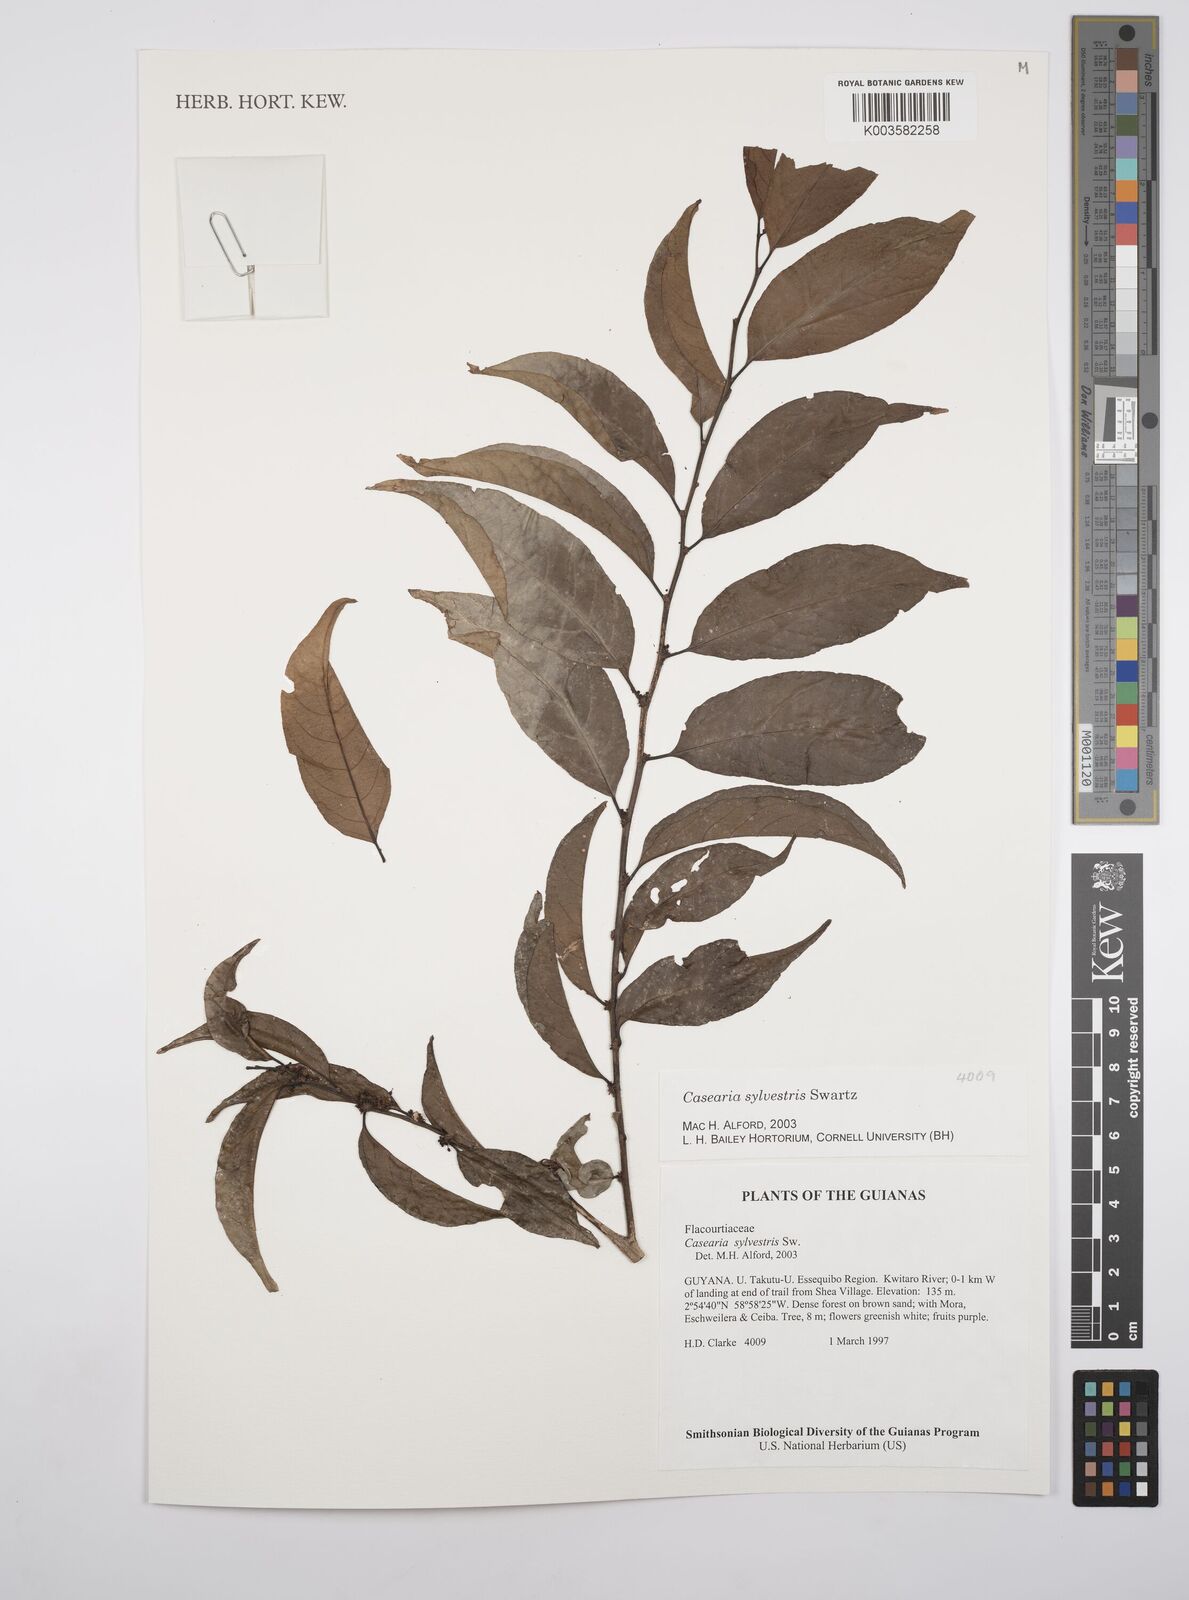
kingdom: Plantae
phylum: Tracheophyta
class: Magnoliopsida
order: Malpighiales
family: Salicaceae
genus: Casearia
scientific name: Casearia sylvestris
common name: Wild sage
